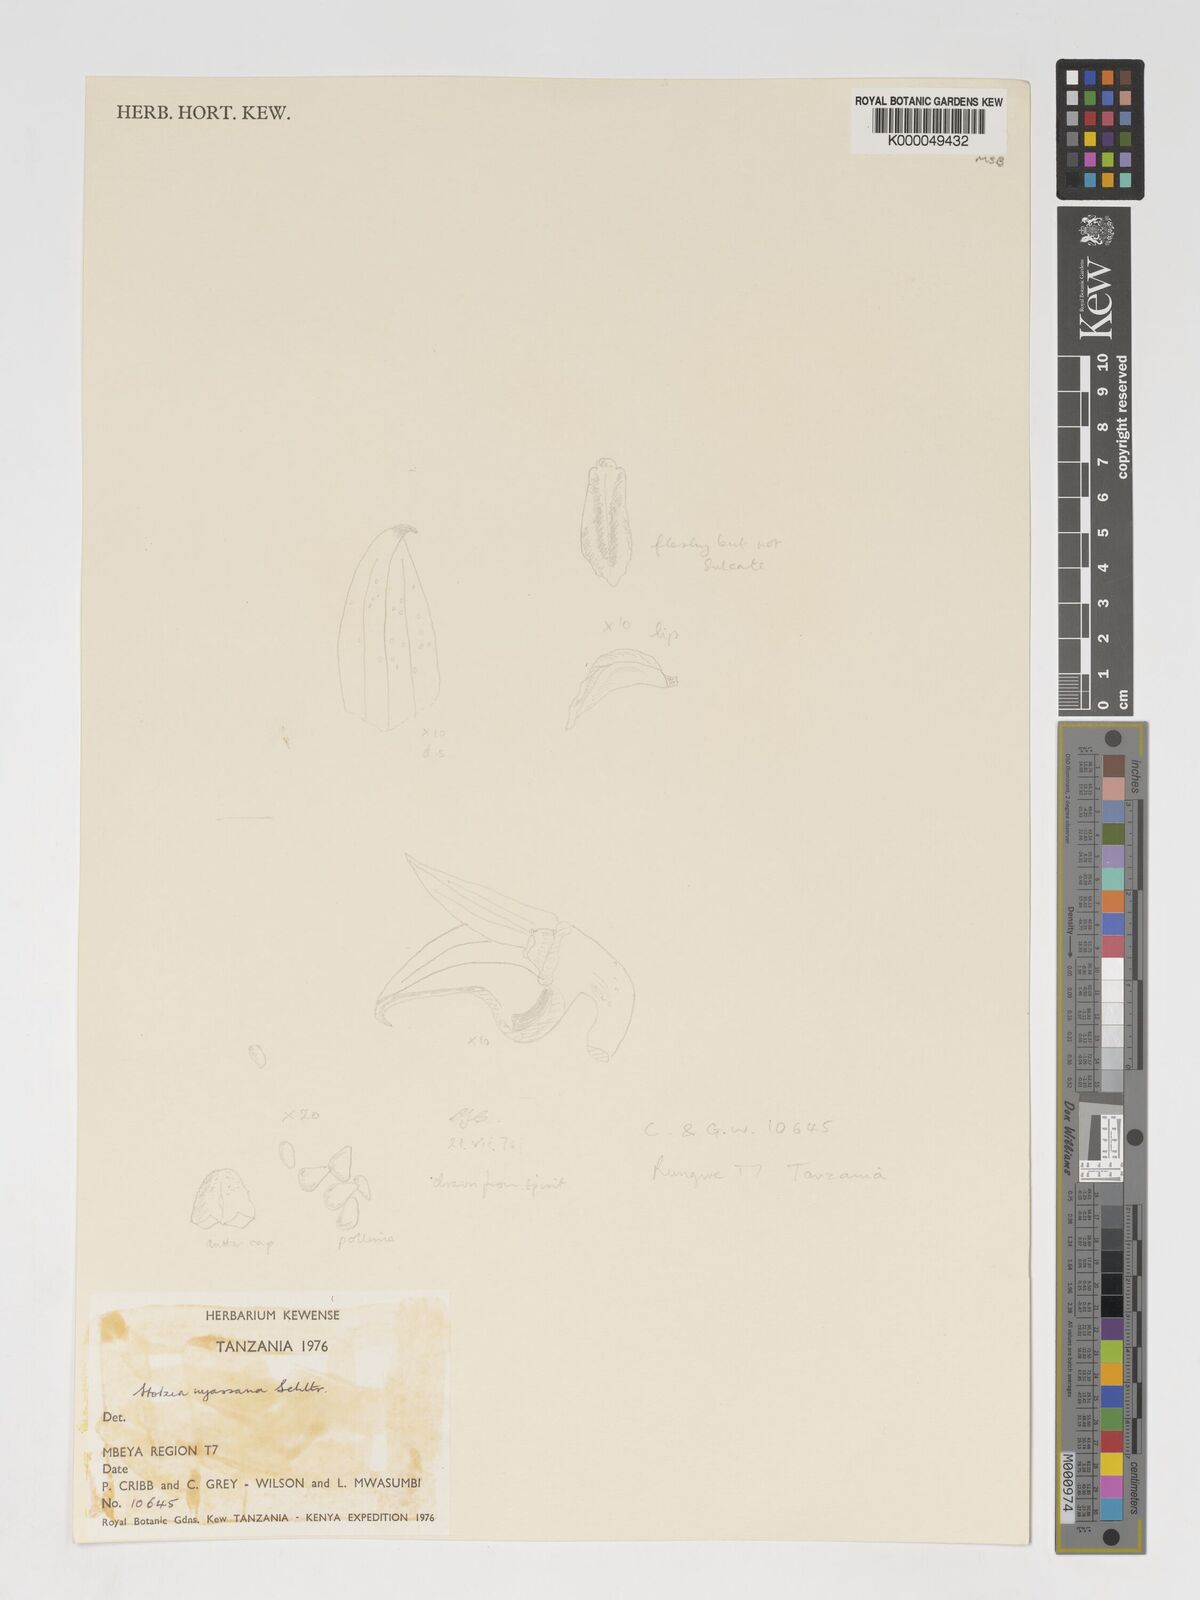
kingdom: Plantae
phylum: Tracheophyta
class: Liliopsida
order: Asparagales
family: Orchidaceae
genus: Porpax
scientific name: Porpax nyassana
